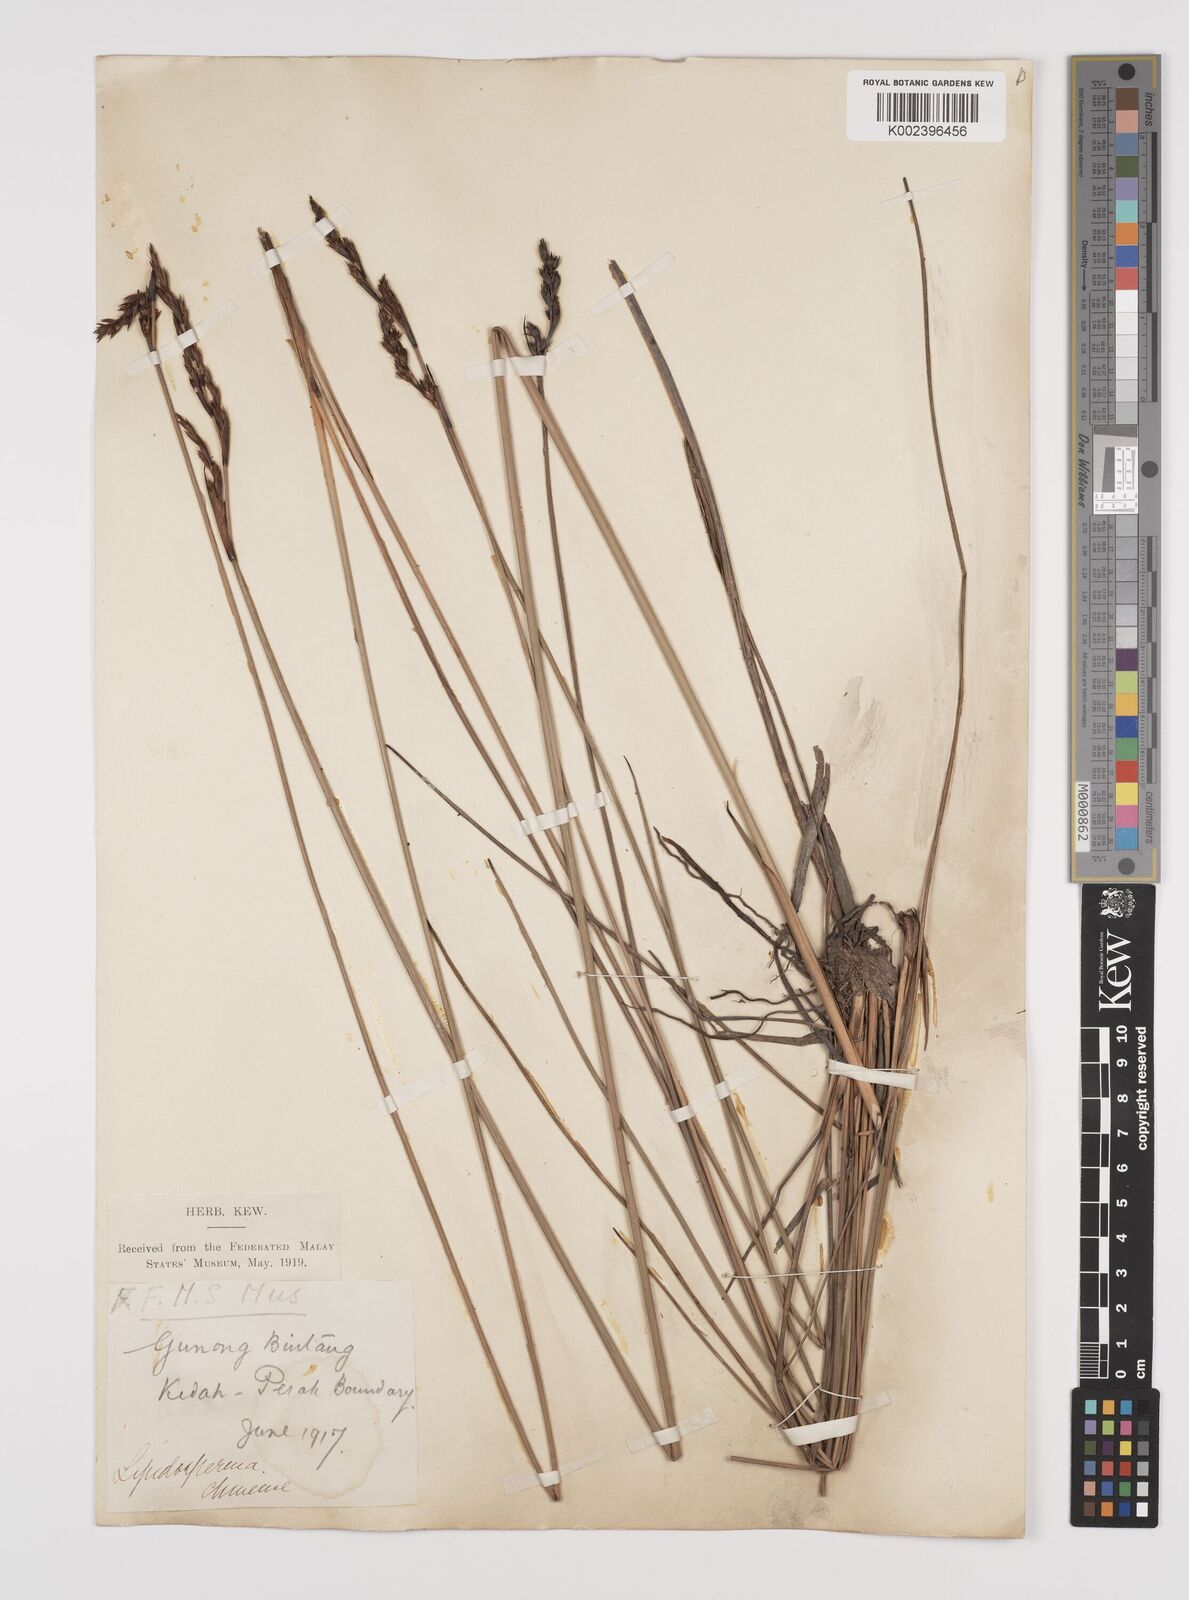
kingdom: Plantae
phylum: Tracheophyta
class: Liliopsida
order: Poales
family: Cyperaceae
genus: Lepidosperma
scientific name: Lepidosperma chinense
